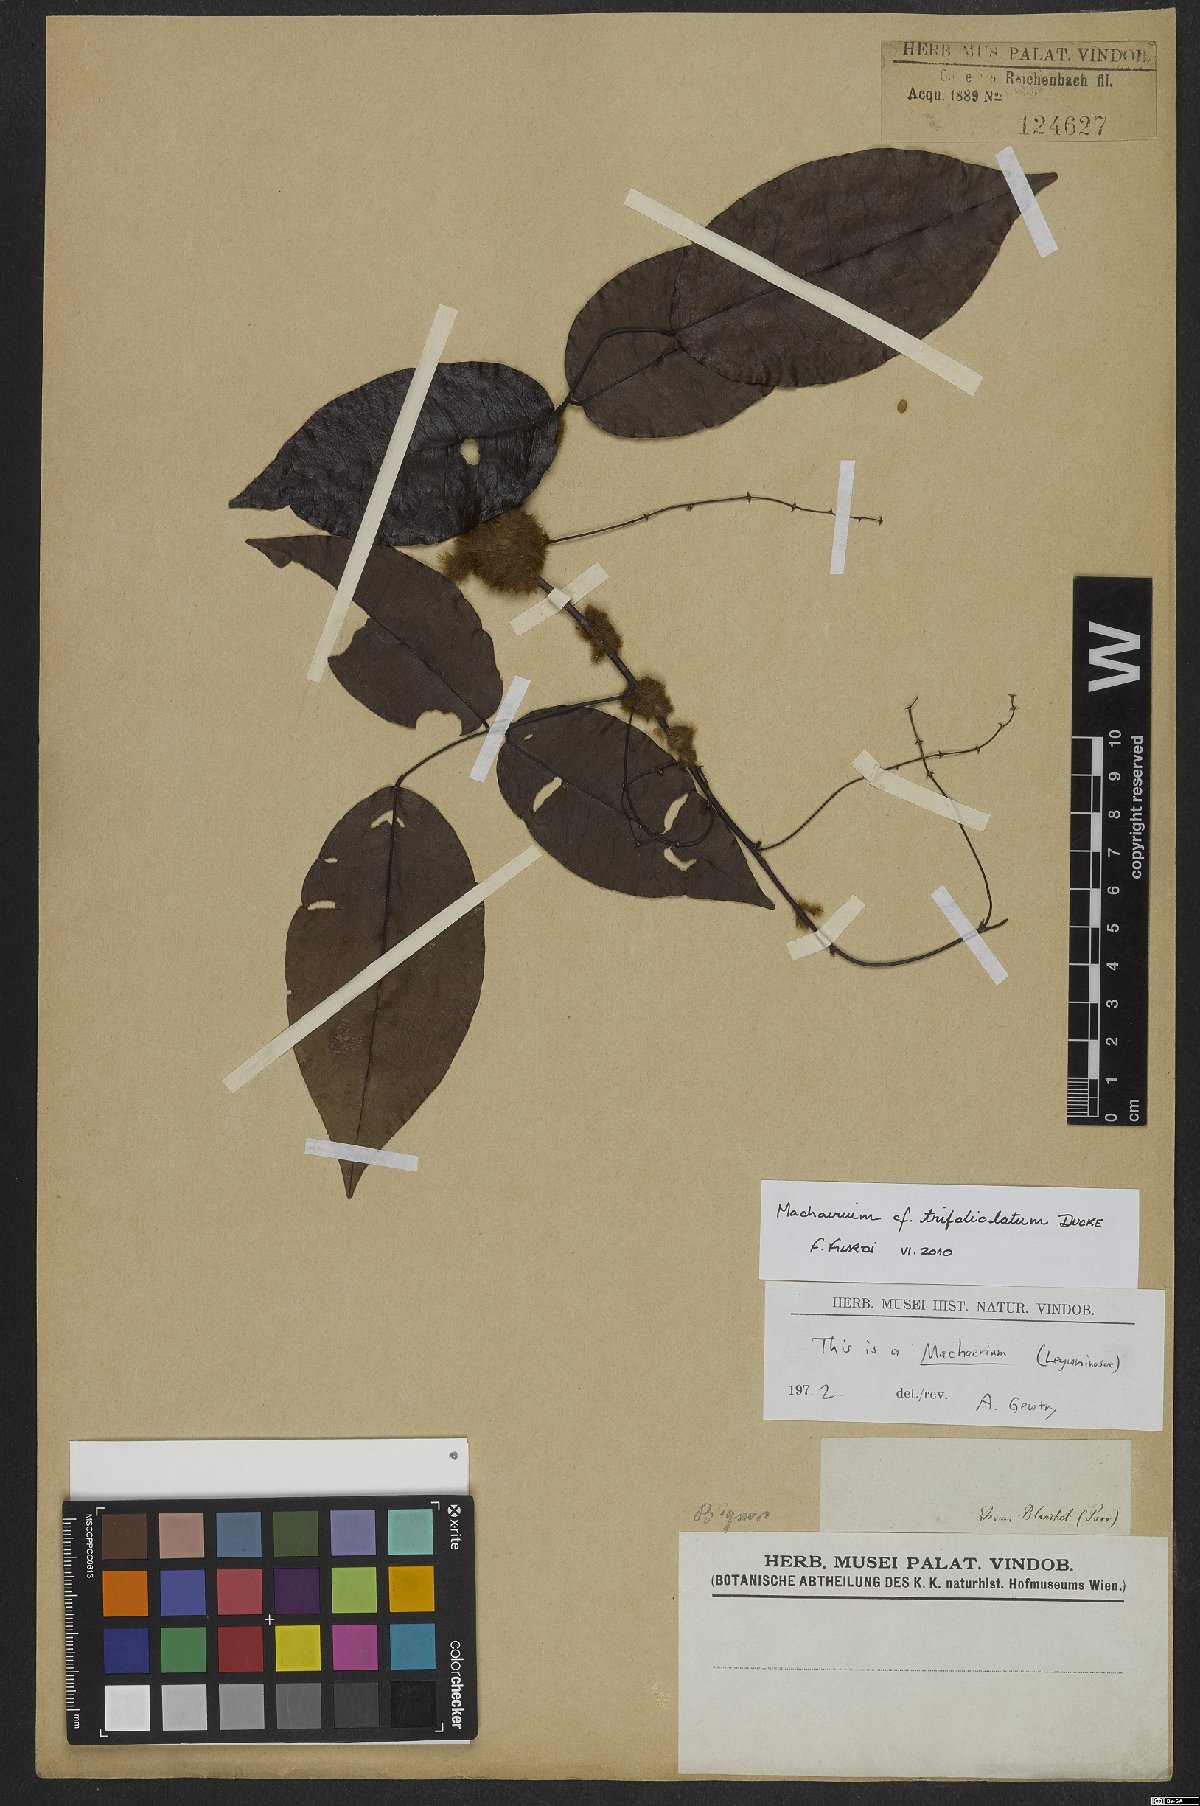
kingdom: Plantae
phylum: Tracheophyta
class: Magnoliopsida
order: Fabales
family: Fabaceae
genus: Machaerium
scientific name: Machaerium trifoliolatum
